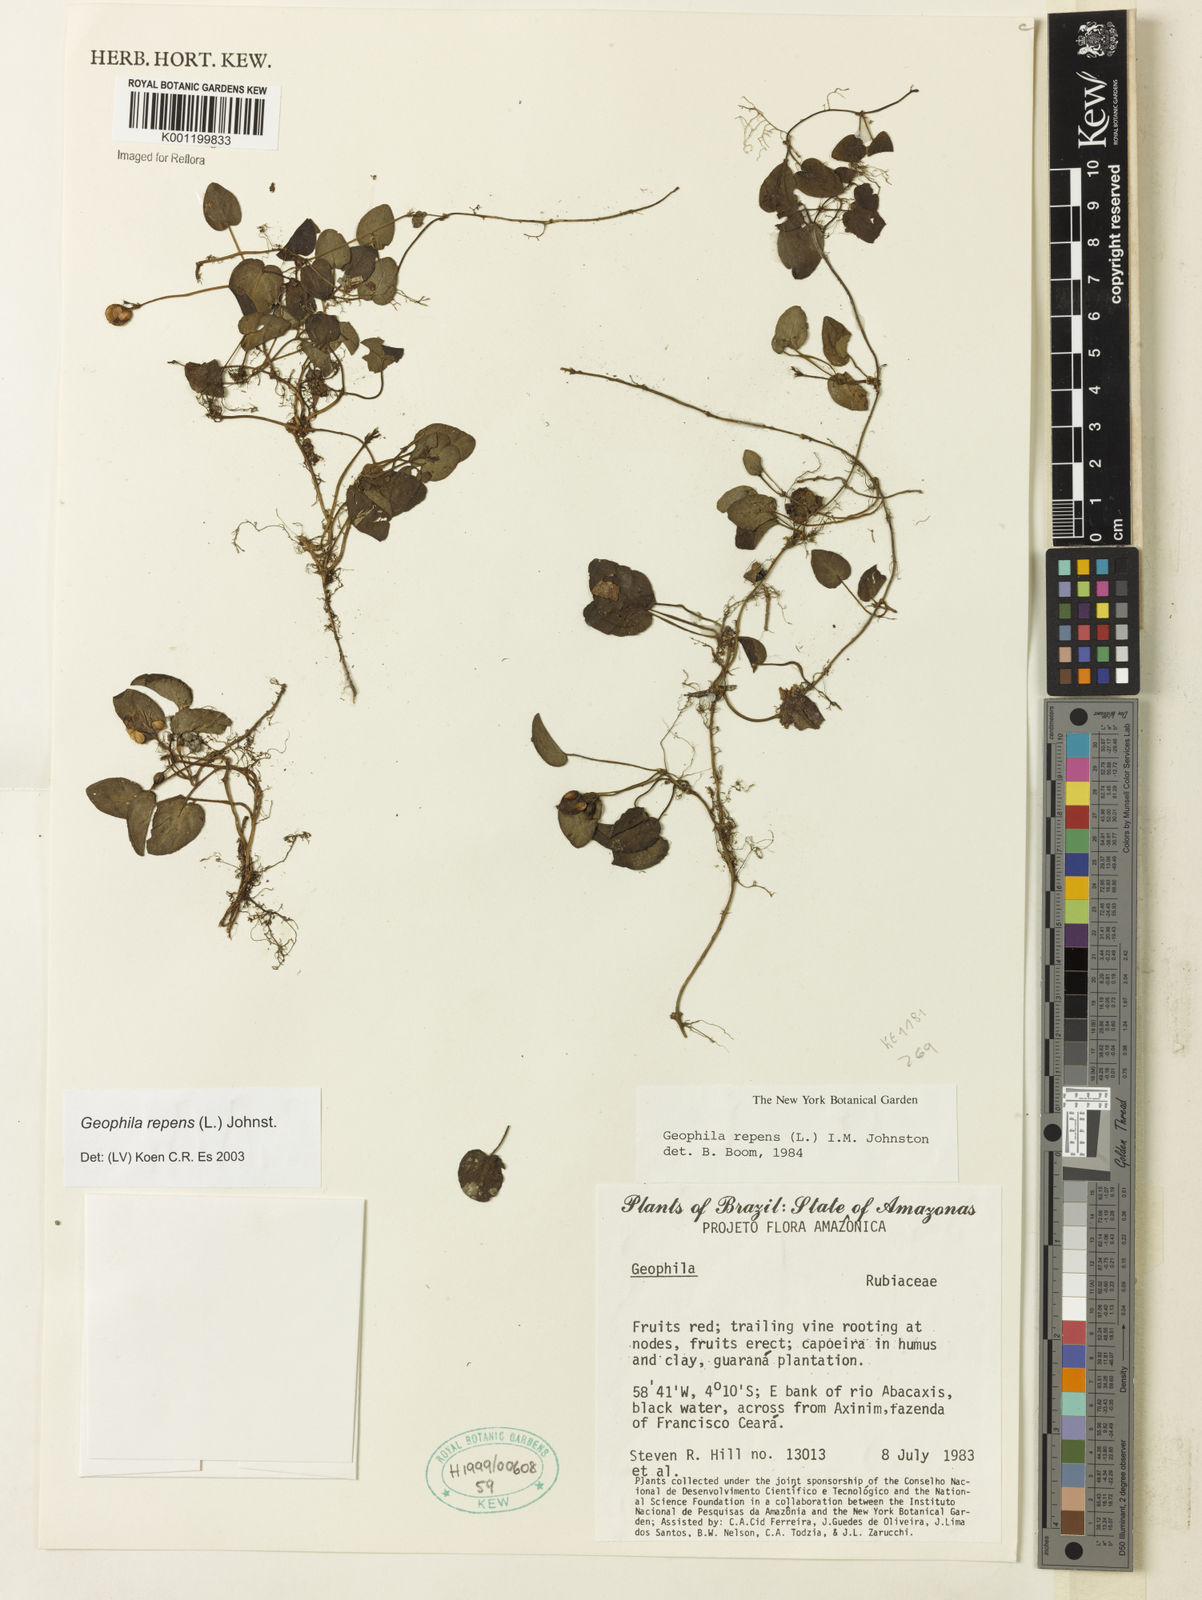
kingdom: Plantae
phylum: Tracheophyta
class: Magnoliopsida
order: Gentianales
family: Rubiaceae
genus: Geophila
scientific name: Geophila repens
